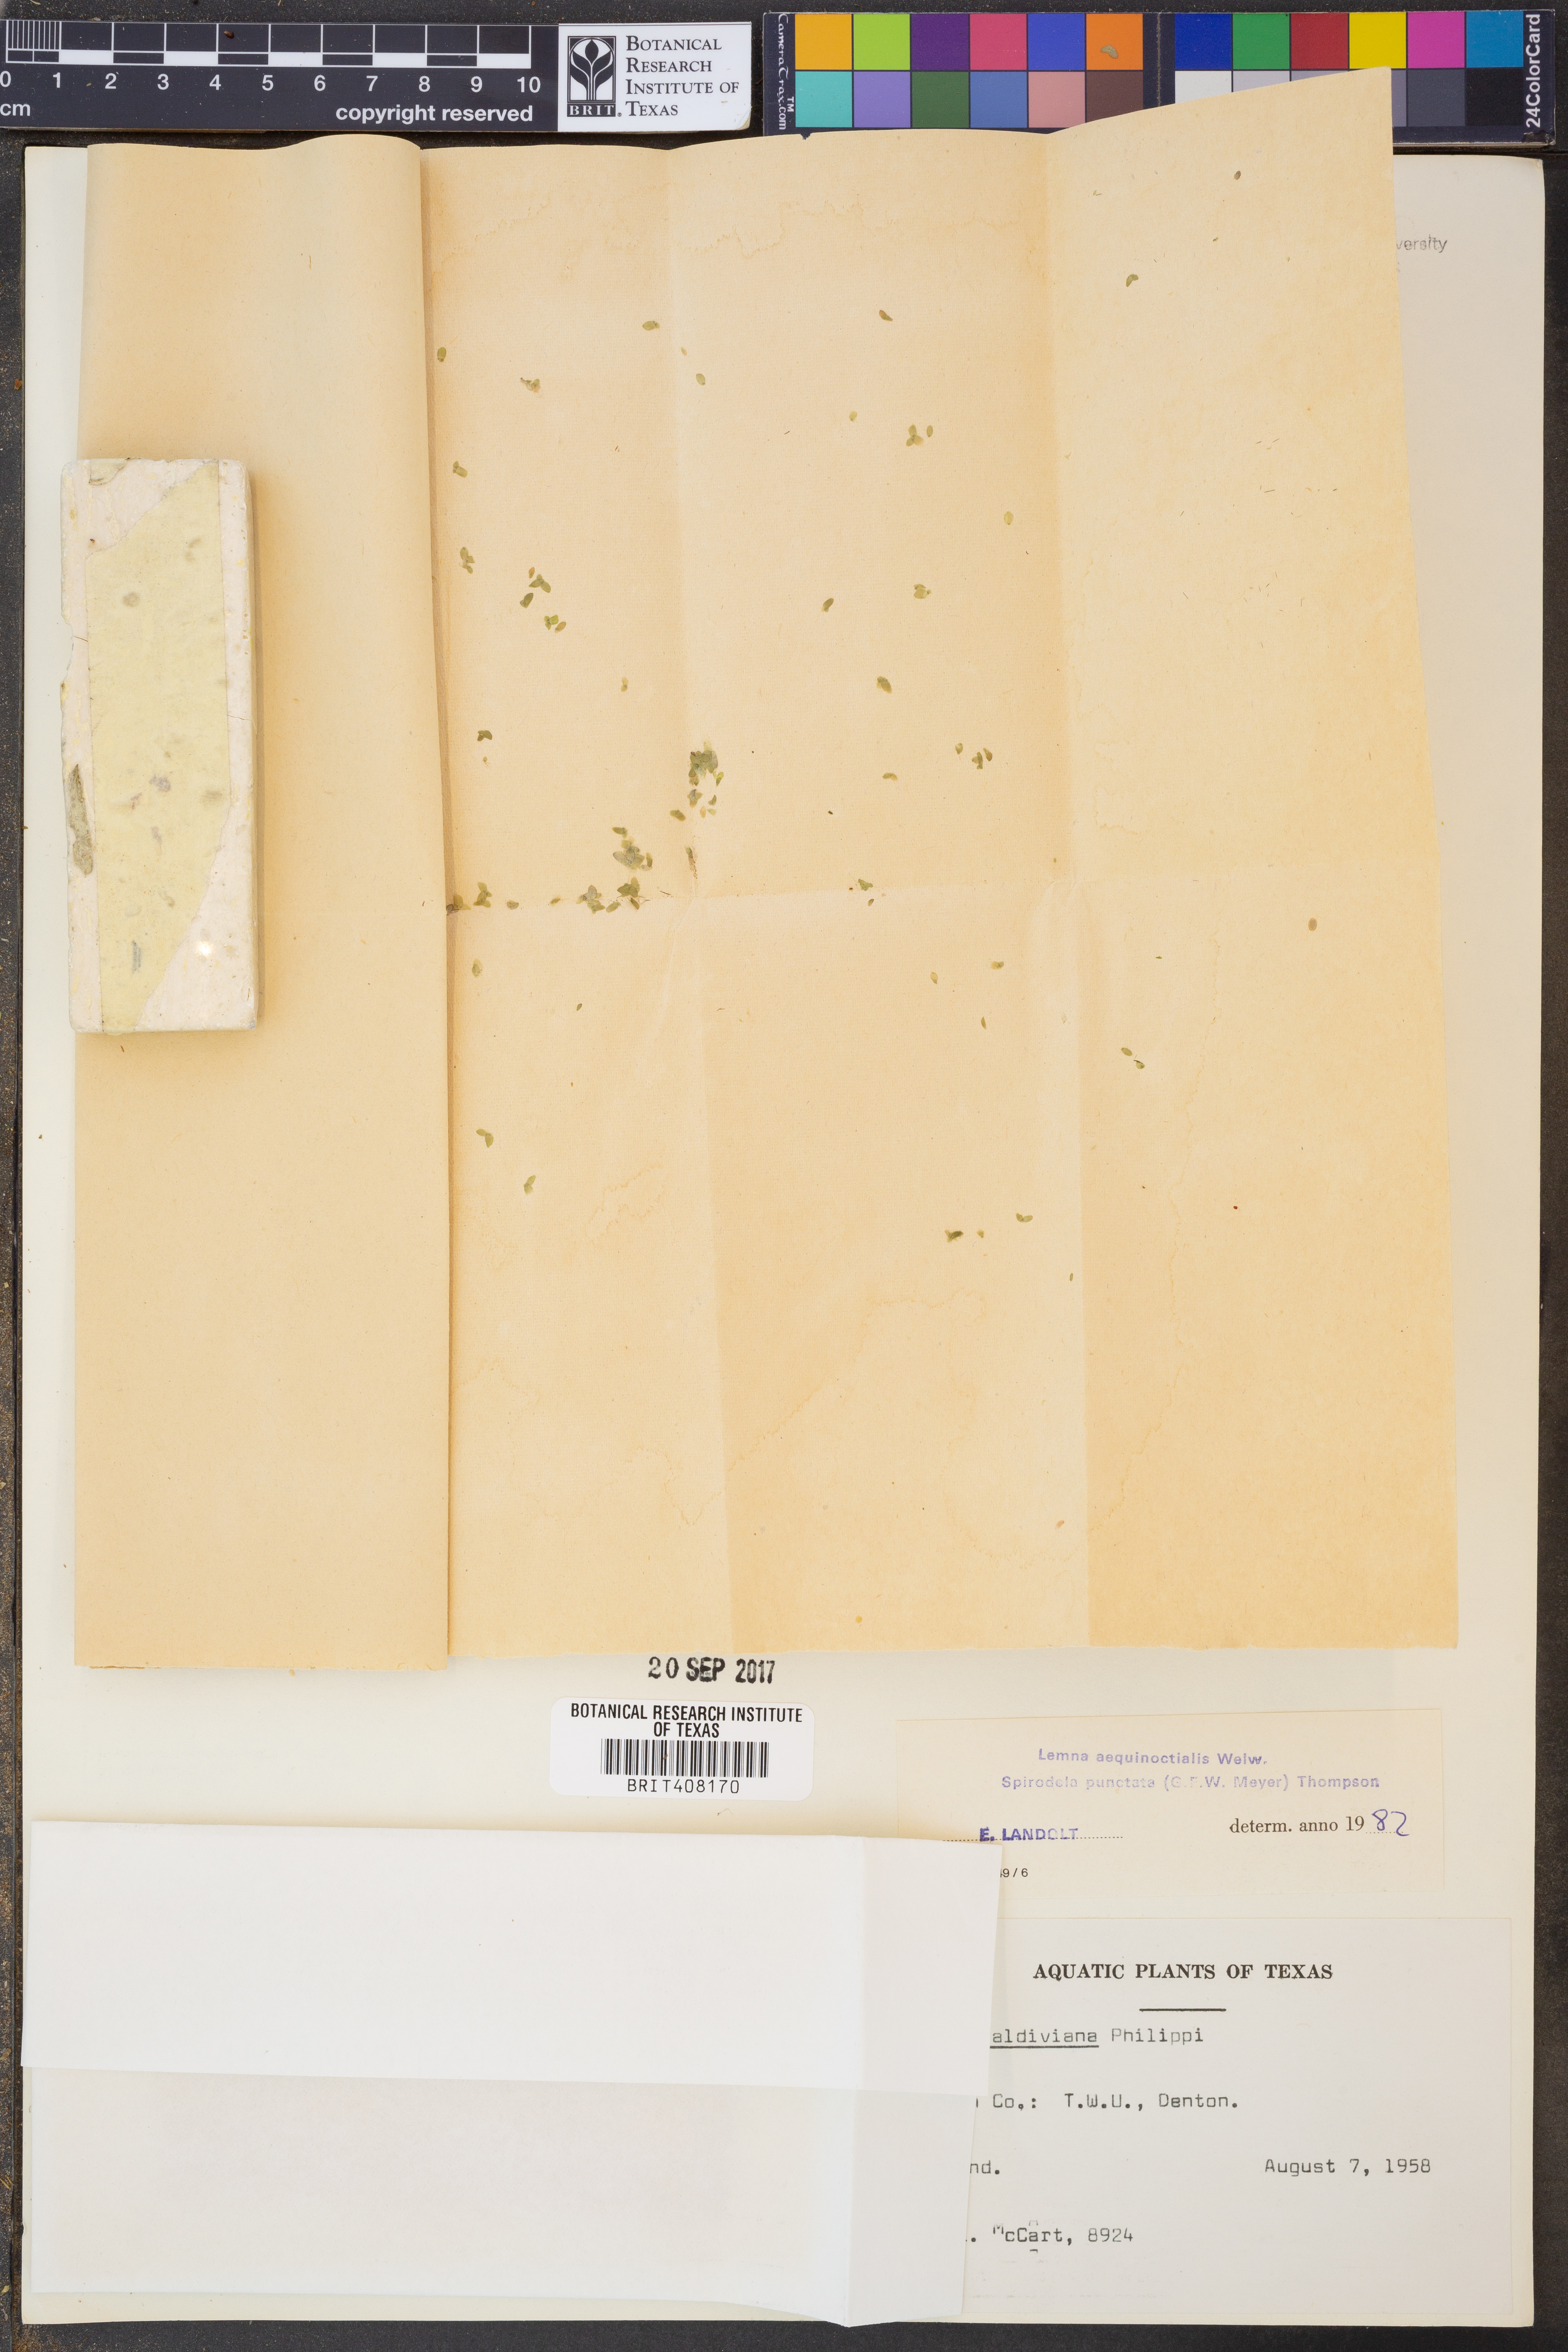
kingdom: Plantae
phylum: Tracheophyta
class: Liliopsida
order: Alismatales
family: Araceae
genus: Lemna
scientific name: Lemna aequinoctialis
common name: Duckweed
